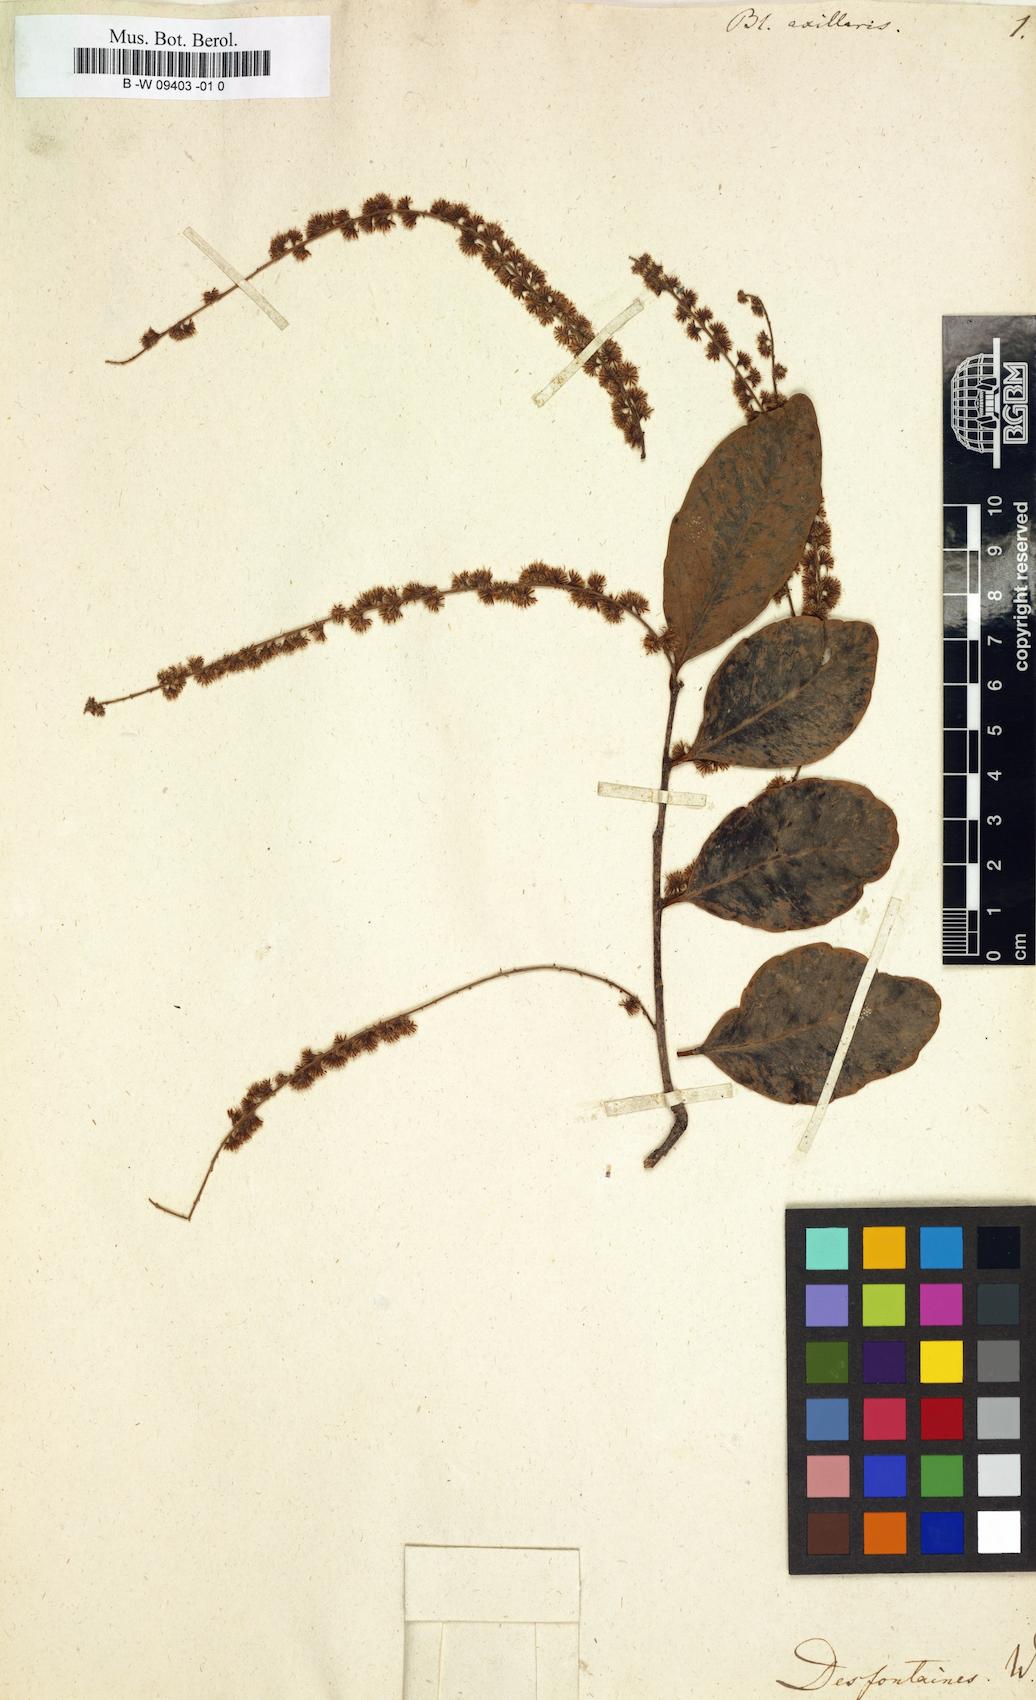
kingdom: Plantae
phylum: Tracheophyta
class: Magnoliopsida
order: Malpighiales
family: Salicaceae
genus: Homalium
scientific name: Homalium axillare
